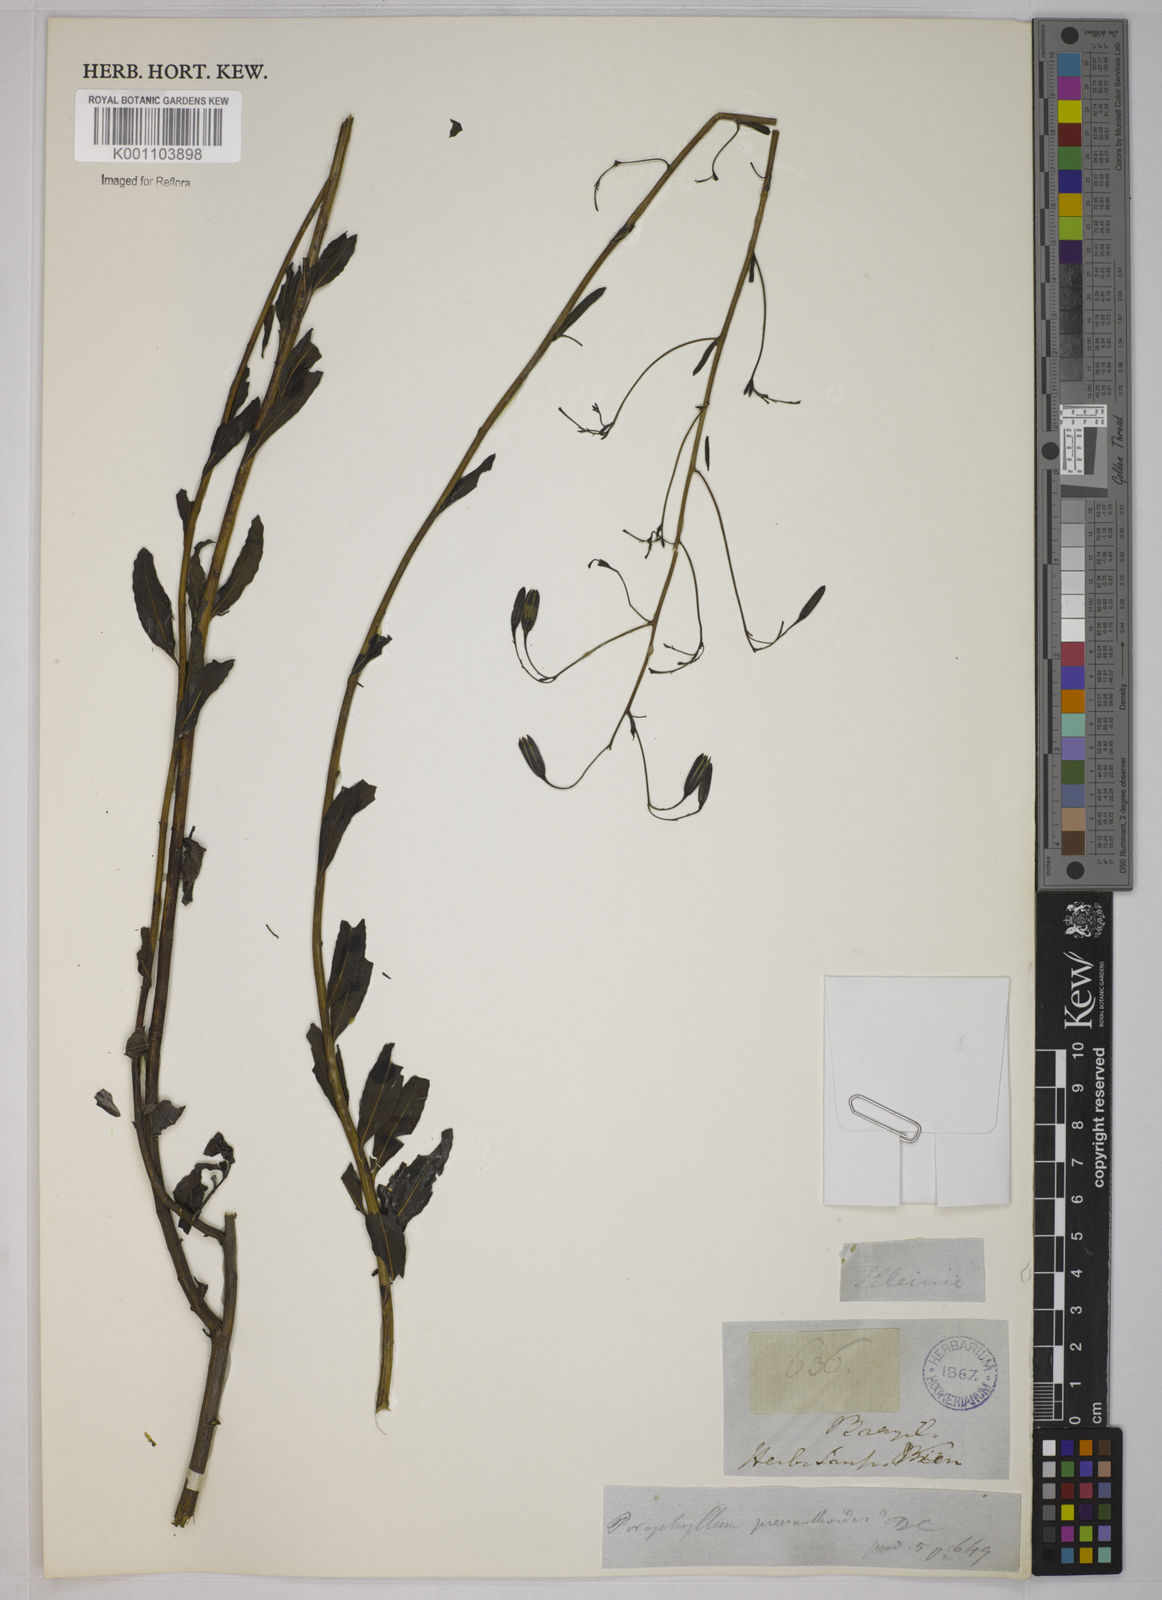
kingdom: Plantae
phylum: Tracheophyta
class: Magnoliopsida
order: Asterales
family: Asteraceae
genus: Porophyllum
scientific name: Porophyllum obscurum
